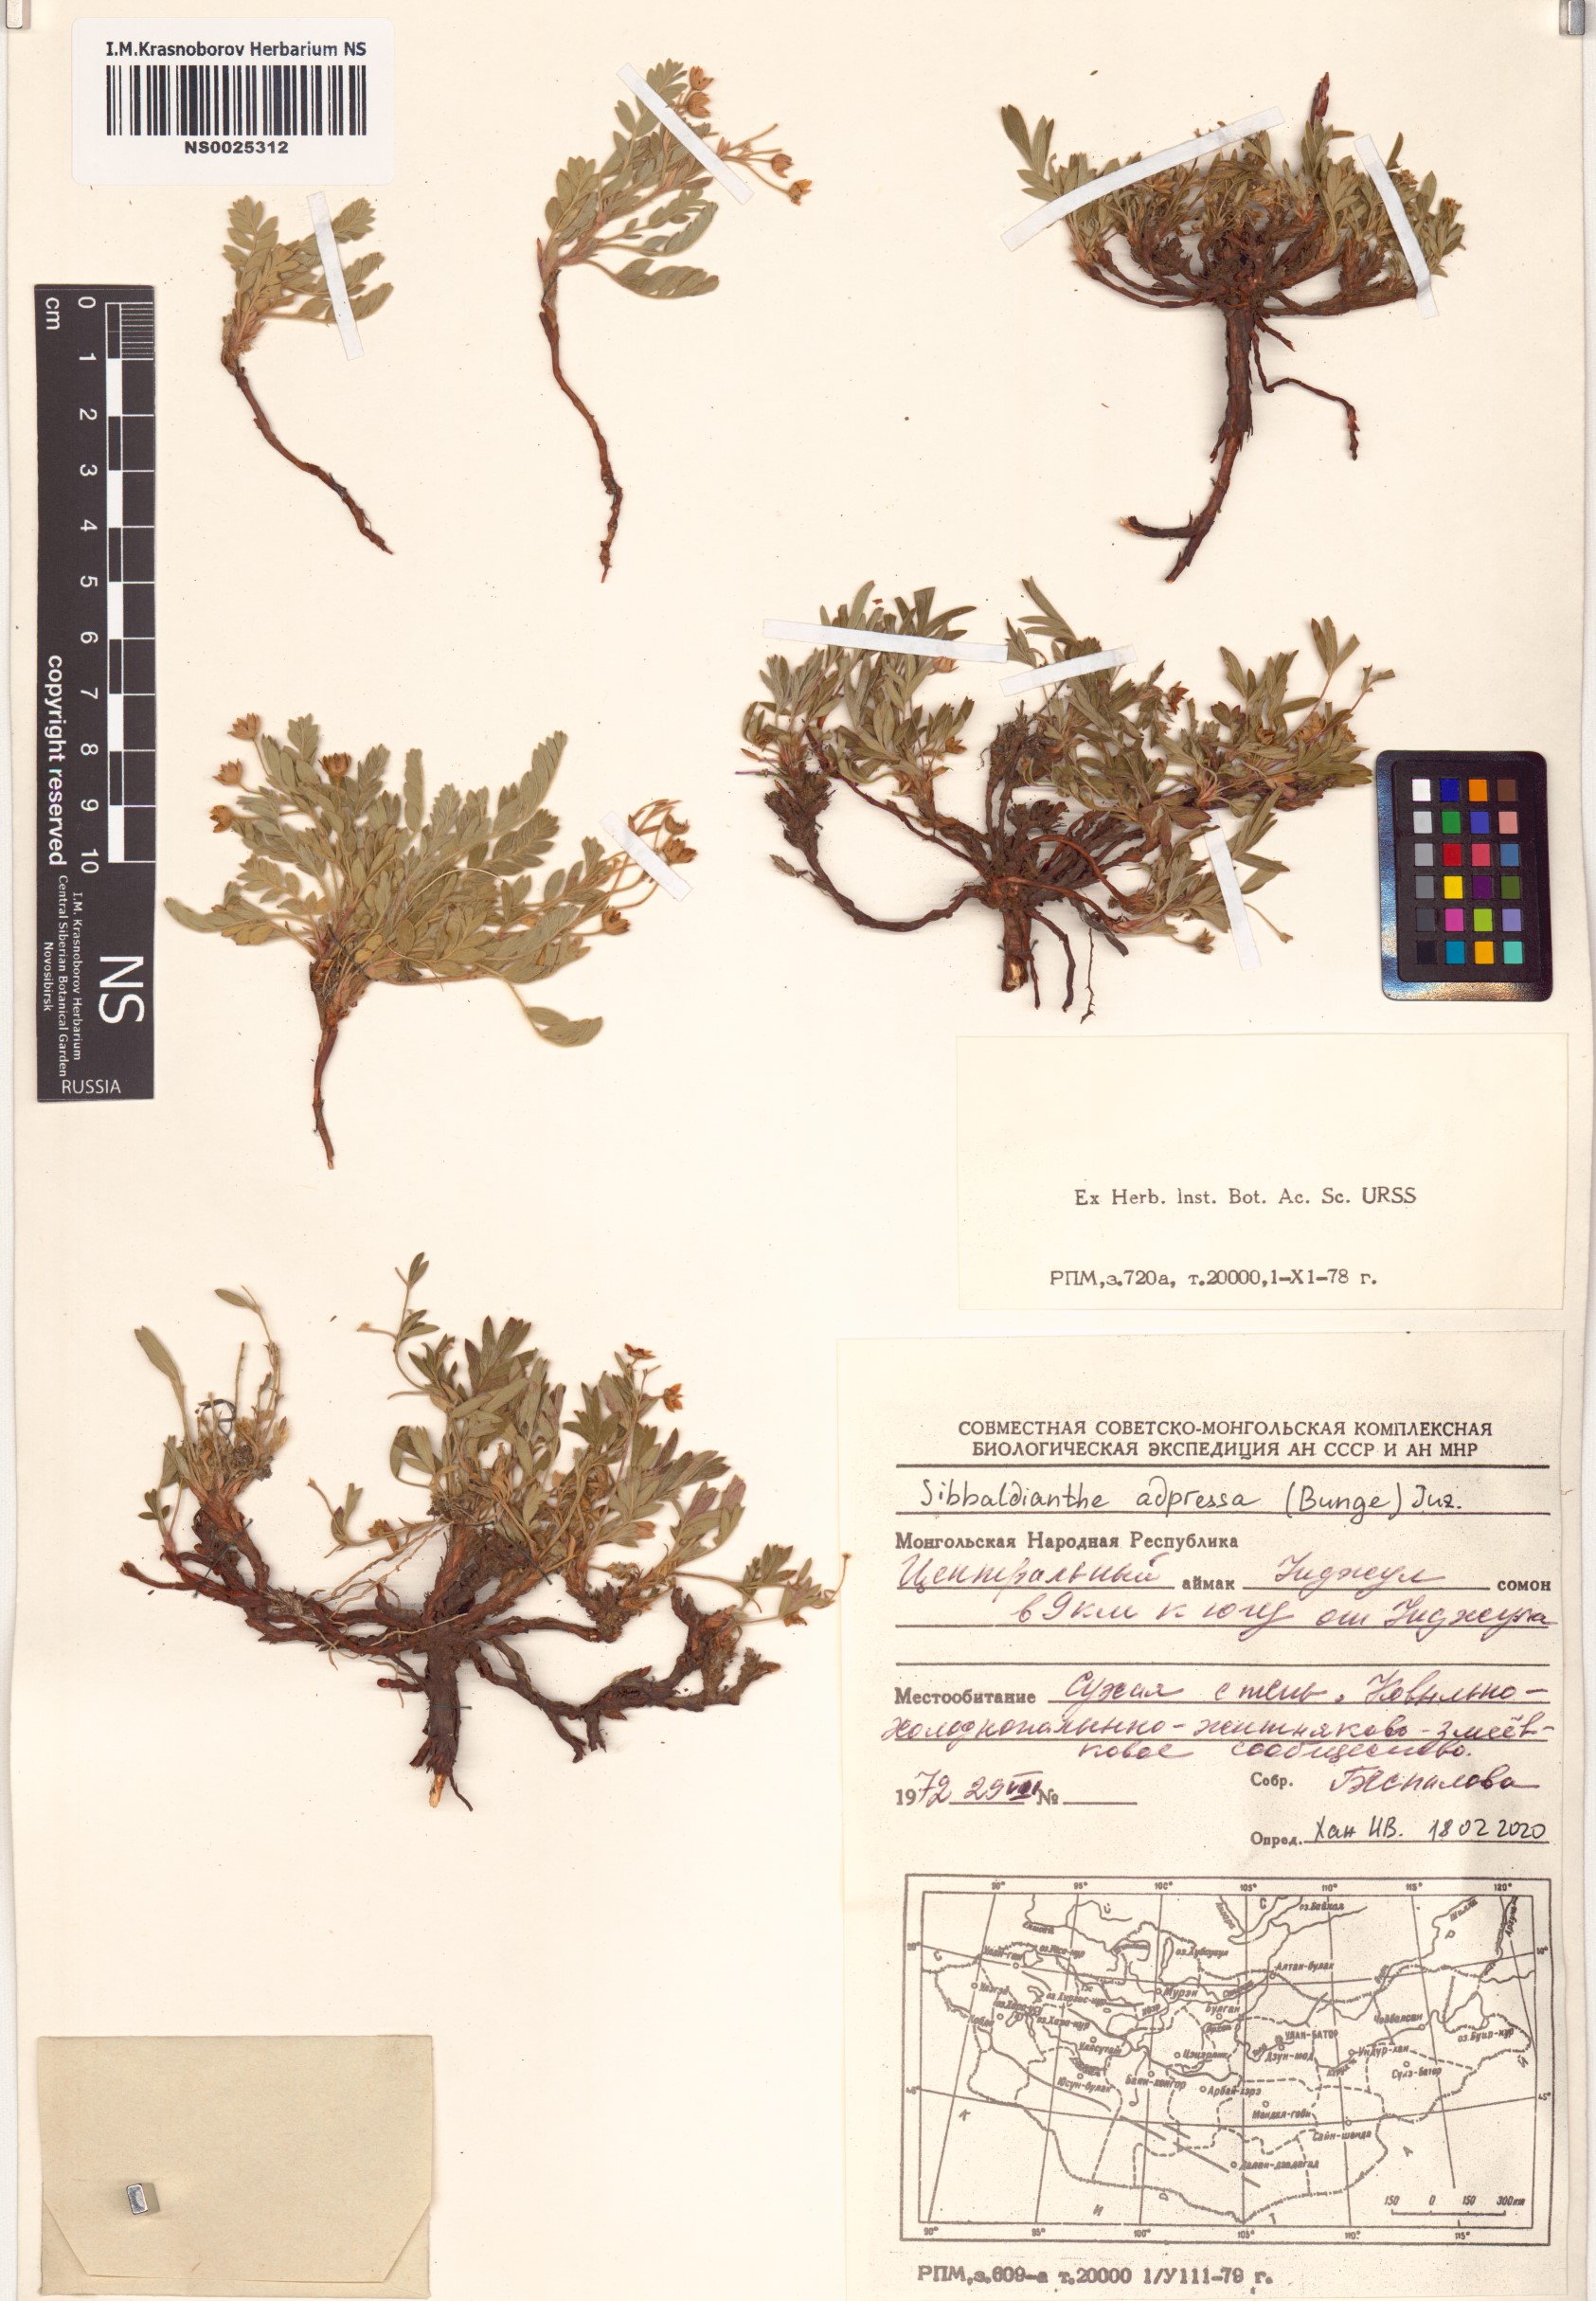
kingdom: Plantae
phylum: Tracheophyta
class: Magnoliopsida
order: Rosales
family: Rosaceae
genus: Sibbaldianthe
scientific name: Sibbaldianthe adpressa
